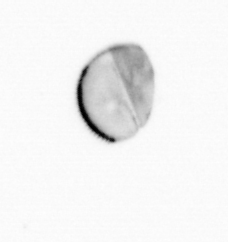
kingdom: Chromista
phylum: Ochrophyta
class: Bacillariophyceae
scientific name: Bacillariophyceae
